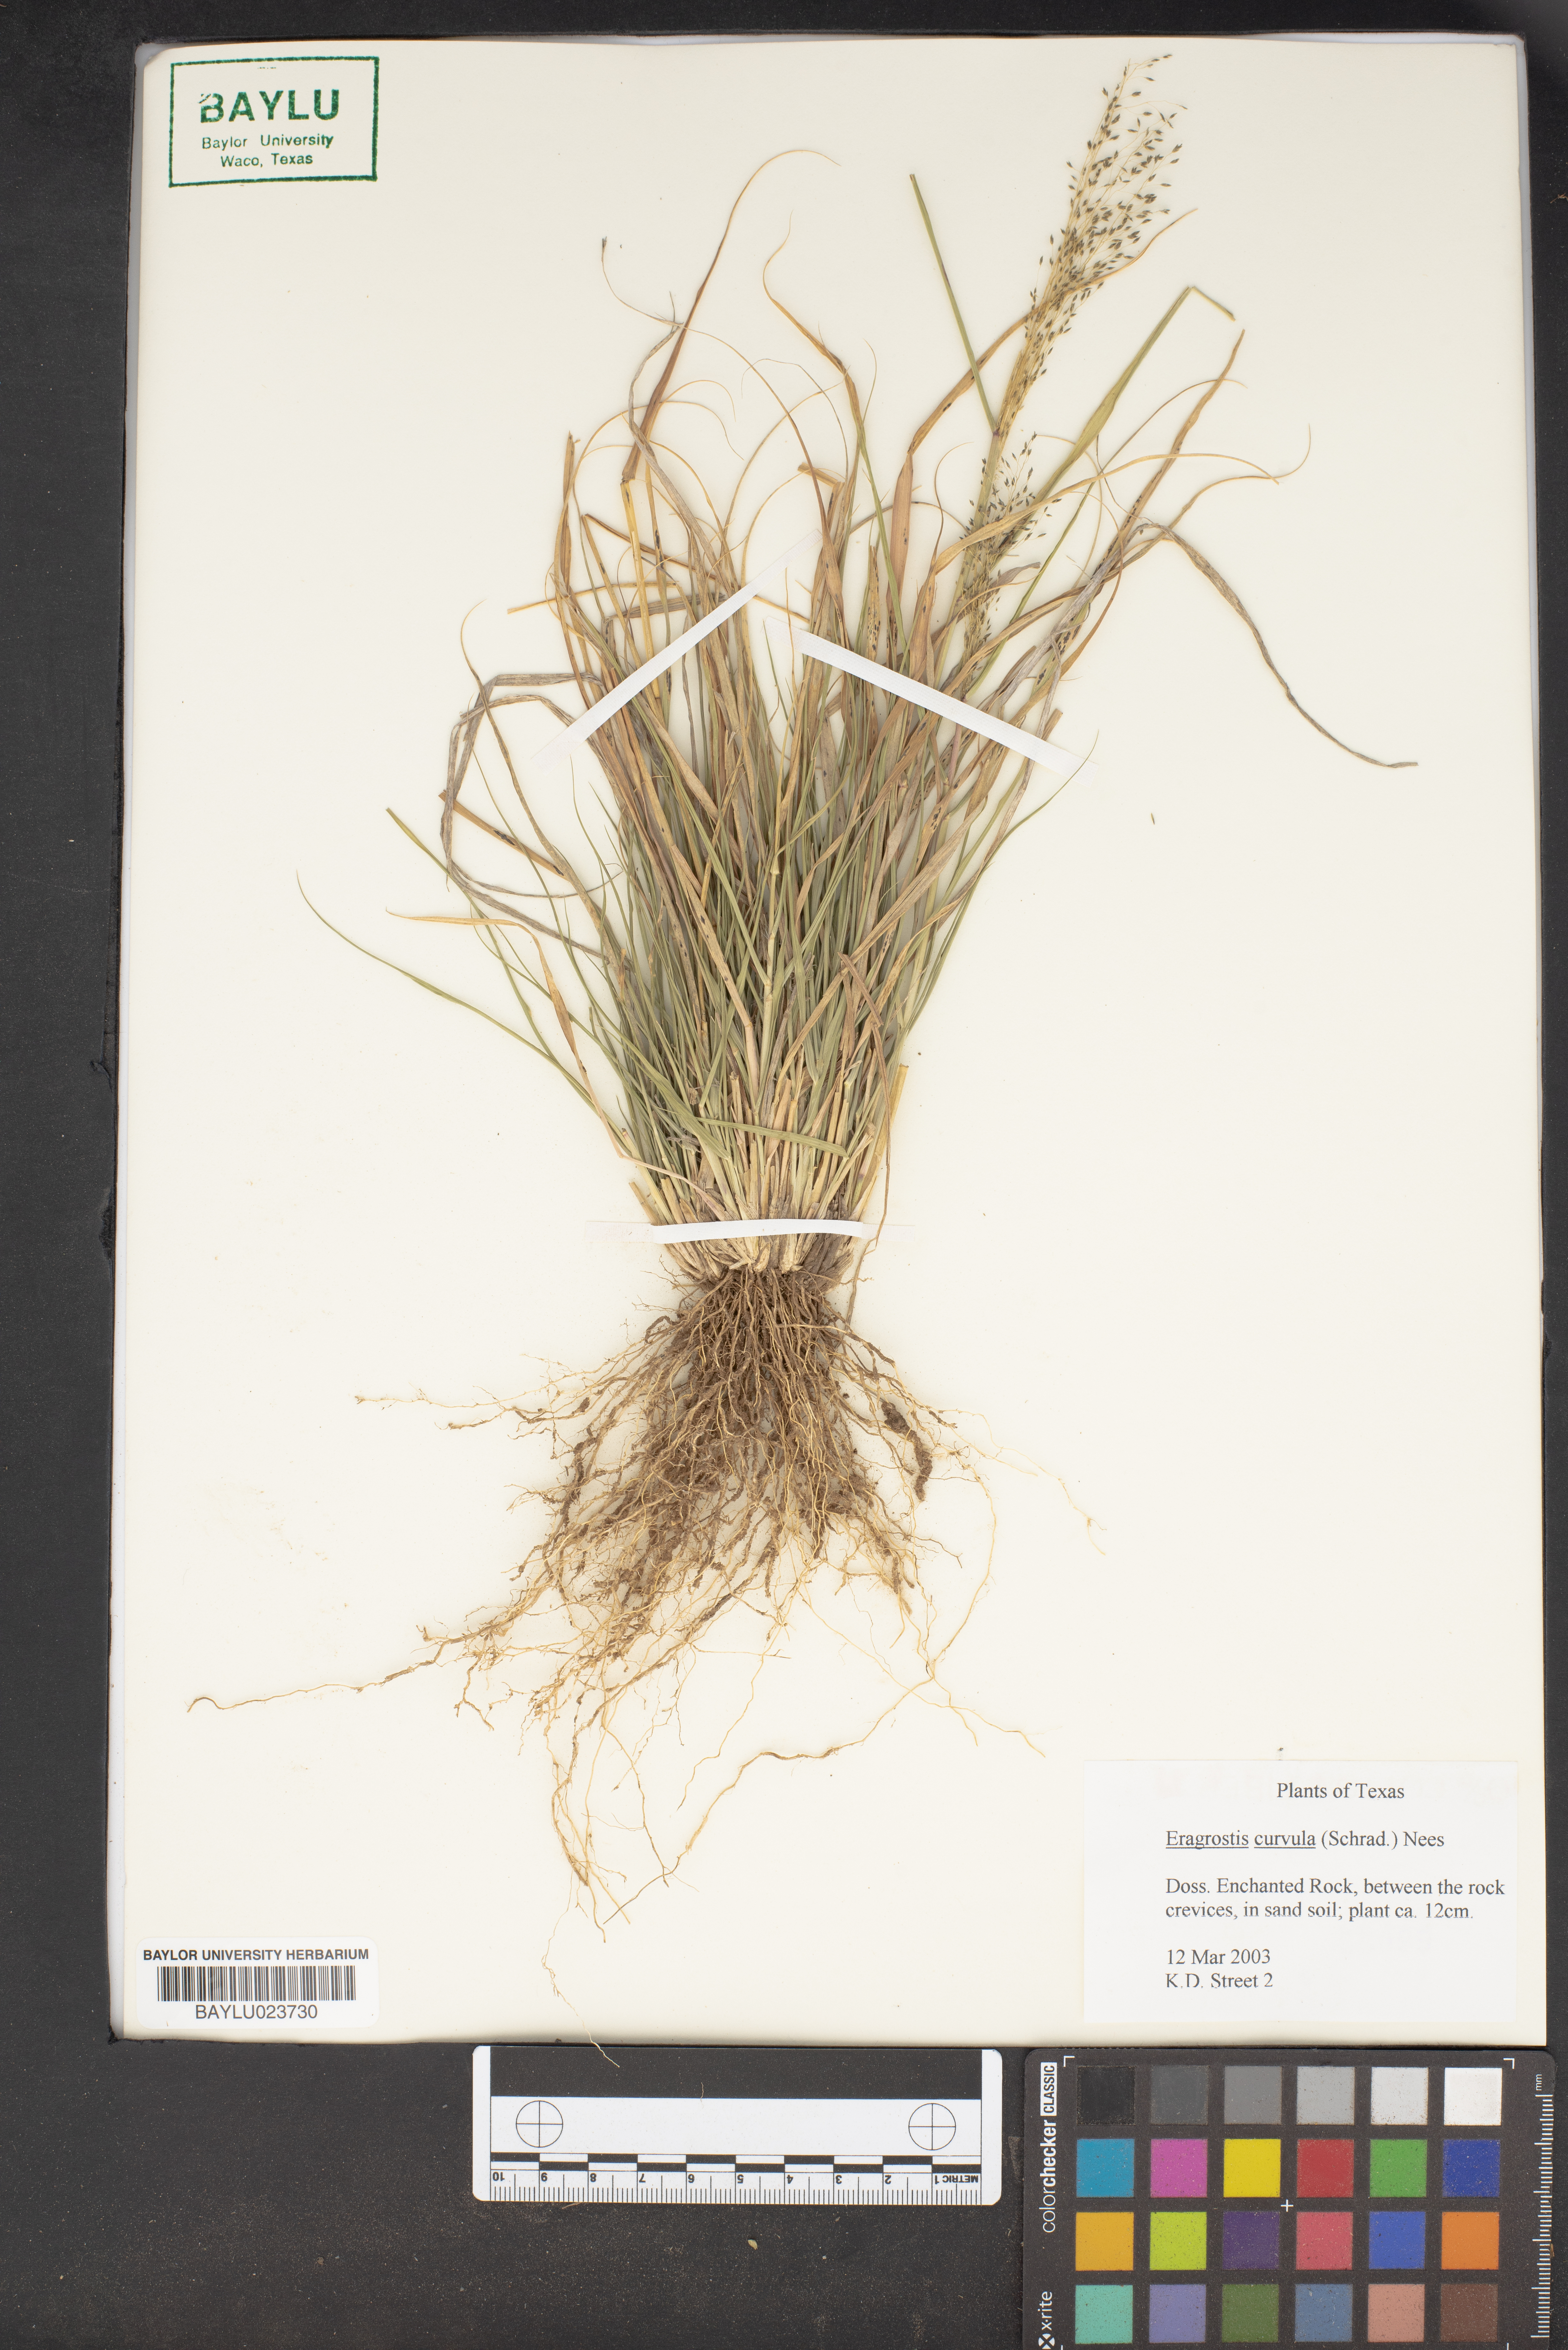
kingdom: Plantae
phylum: Tracheophyta
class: Liliopsida
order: Poales
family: Poaceae
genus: Eragrostis
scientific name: Eragrostis curvula
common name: African love-grass
